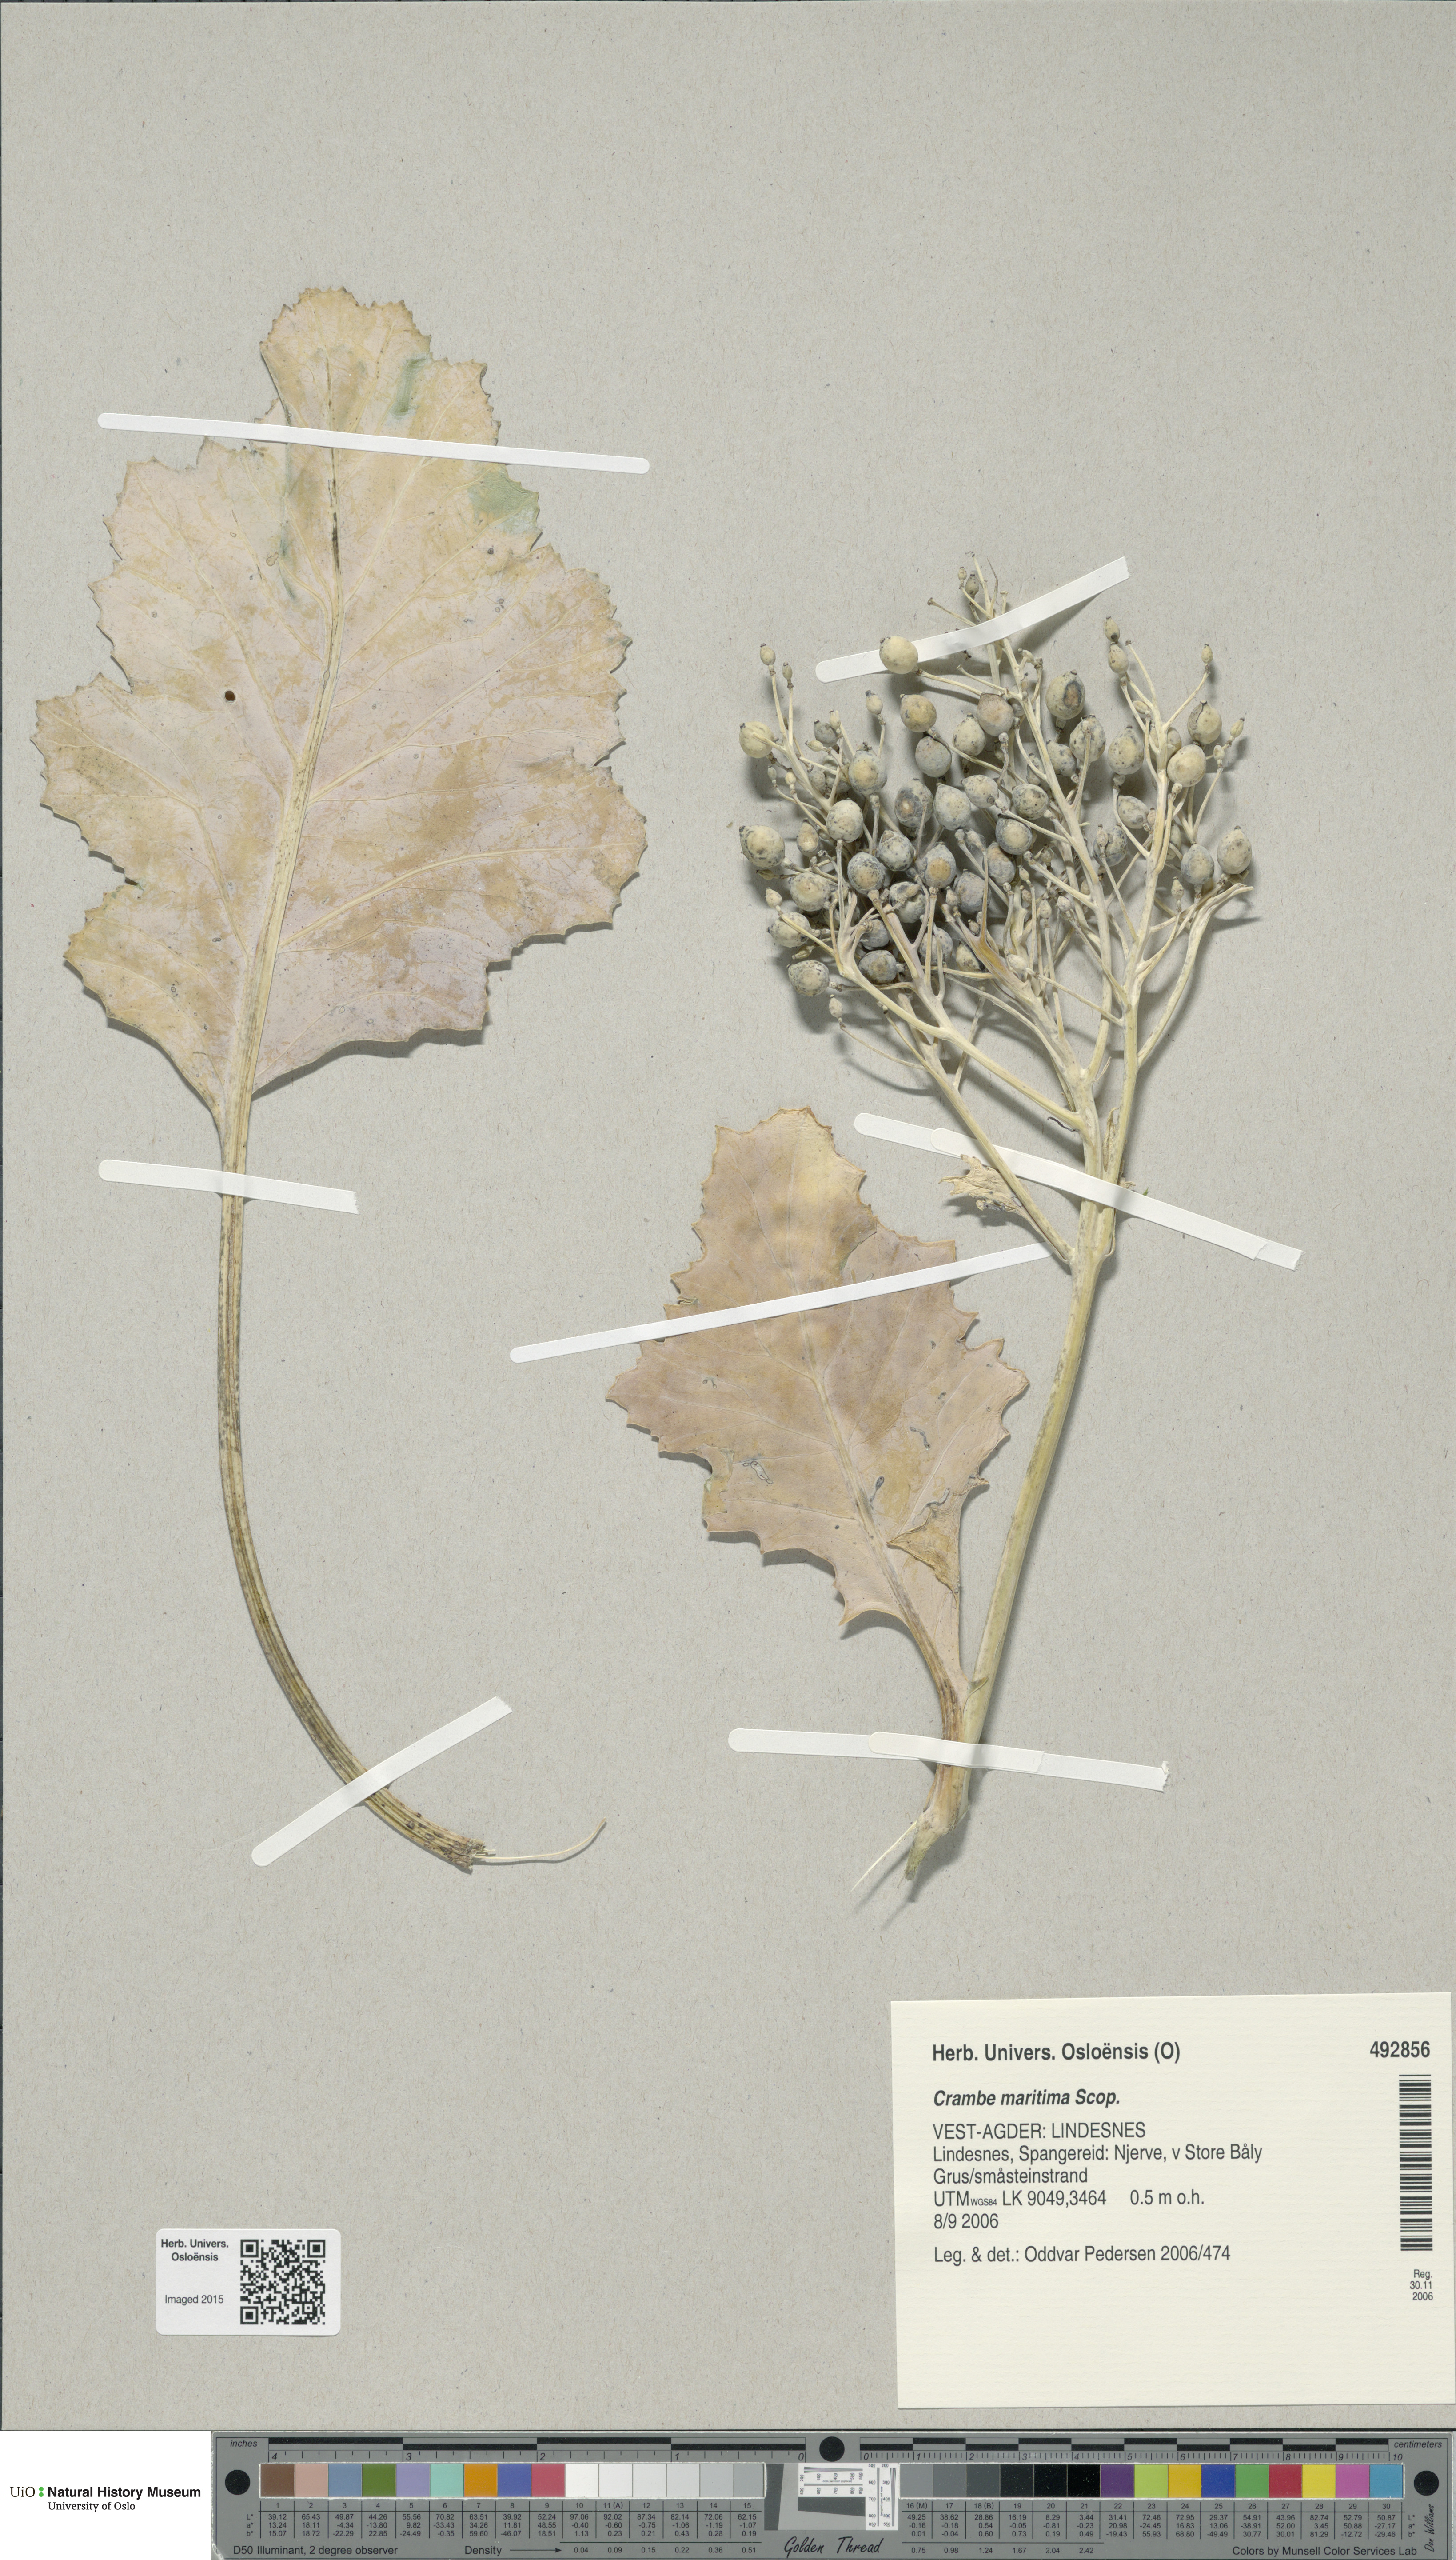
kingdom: Plantae
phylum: Tracheophyta
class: Magnoliopsida
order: Brassicales
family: Brassicaceae
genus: Crambe
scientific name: Crambe maritima
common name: Sea-kale
